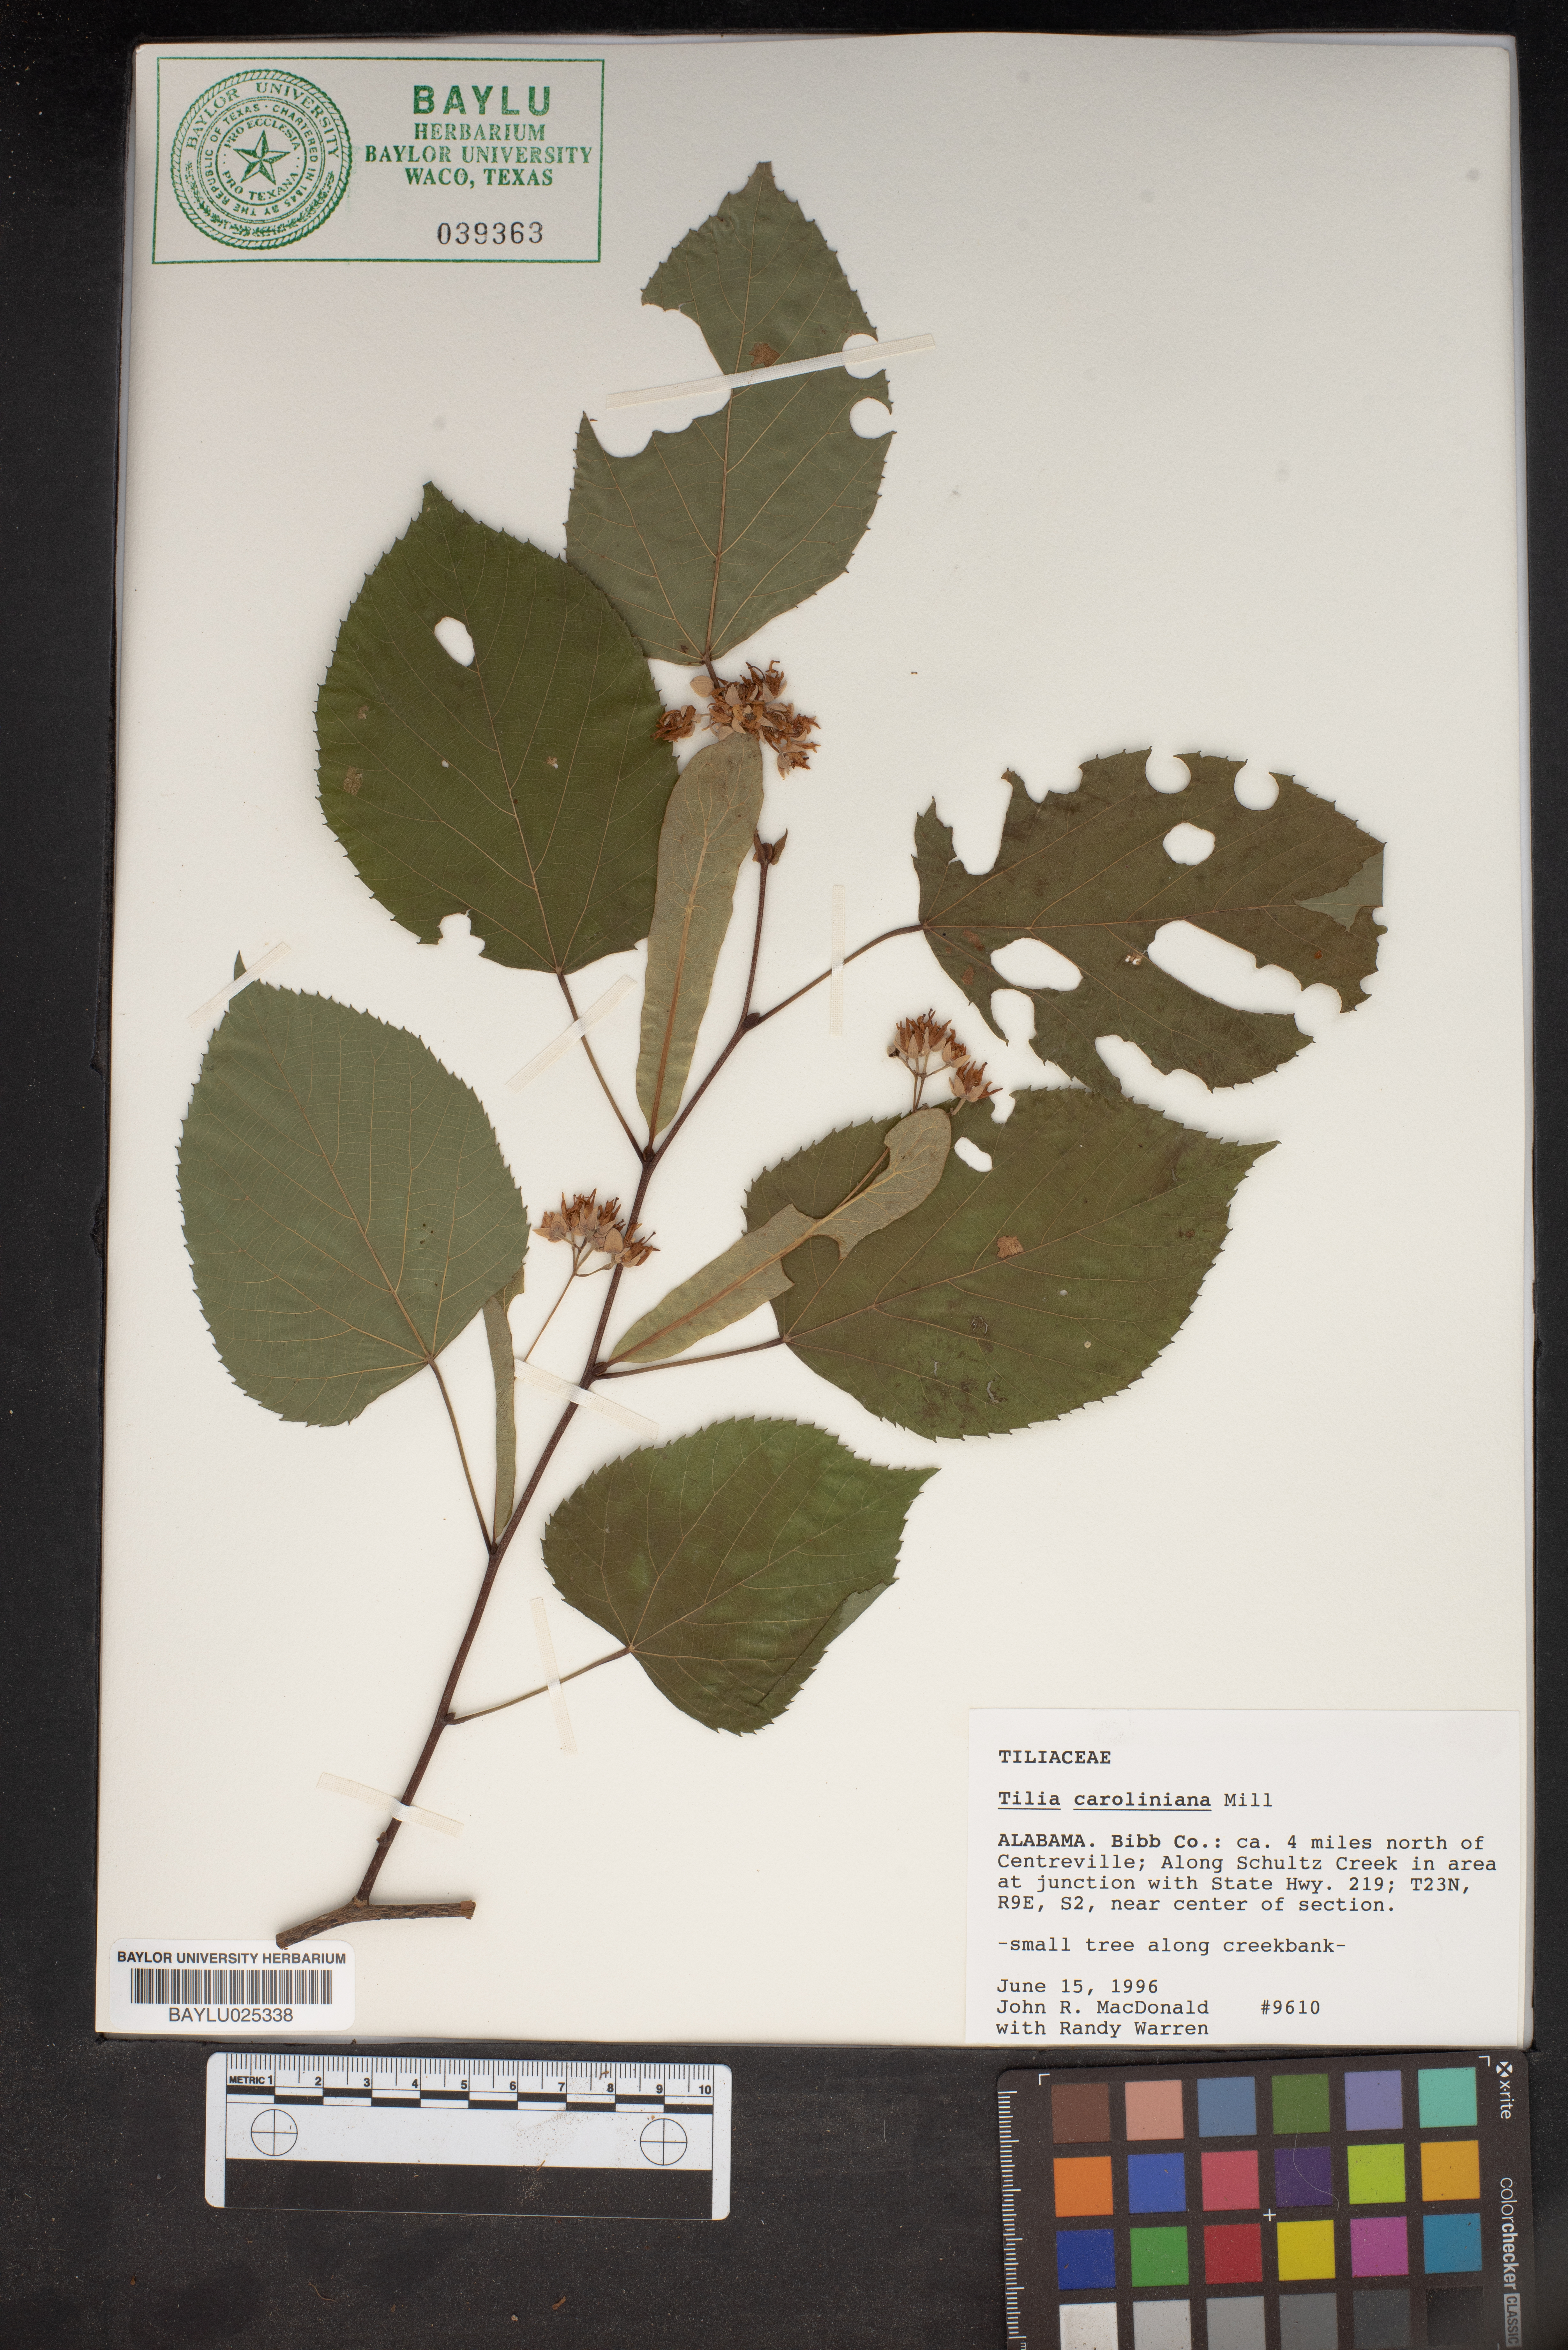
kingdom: Plantae
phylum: Tracheophyta
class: Magnoliopsida
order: Malvales
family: Malvaceae
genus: Tilia
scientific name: Tilia americana
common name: Basswood
